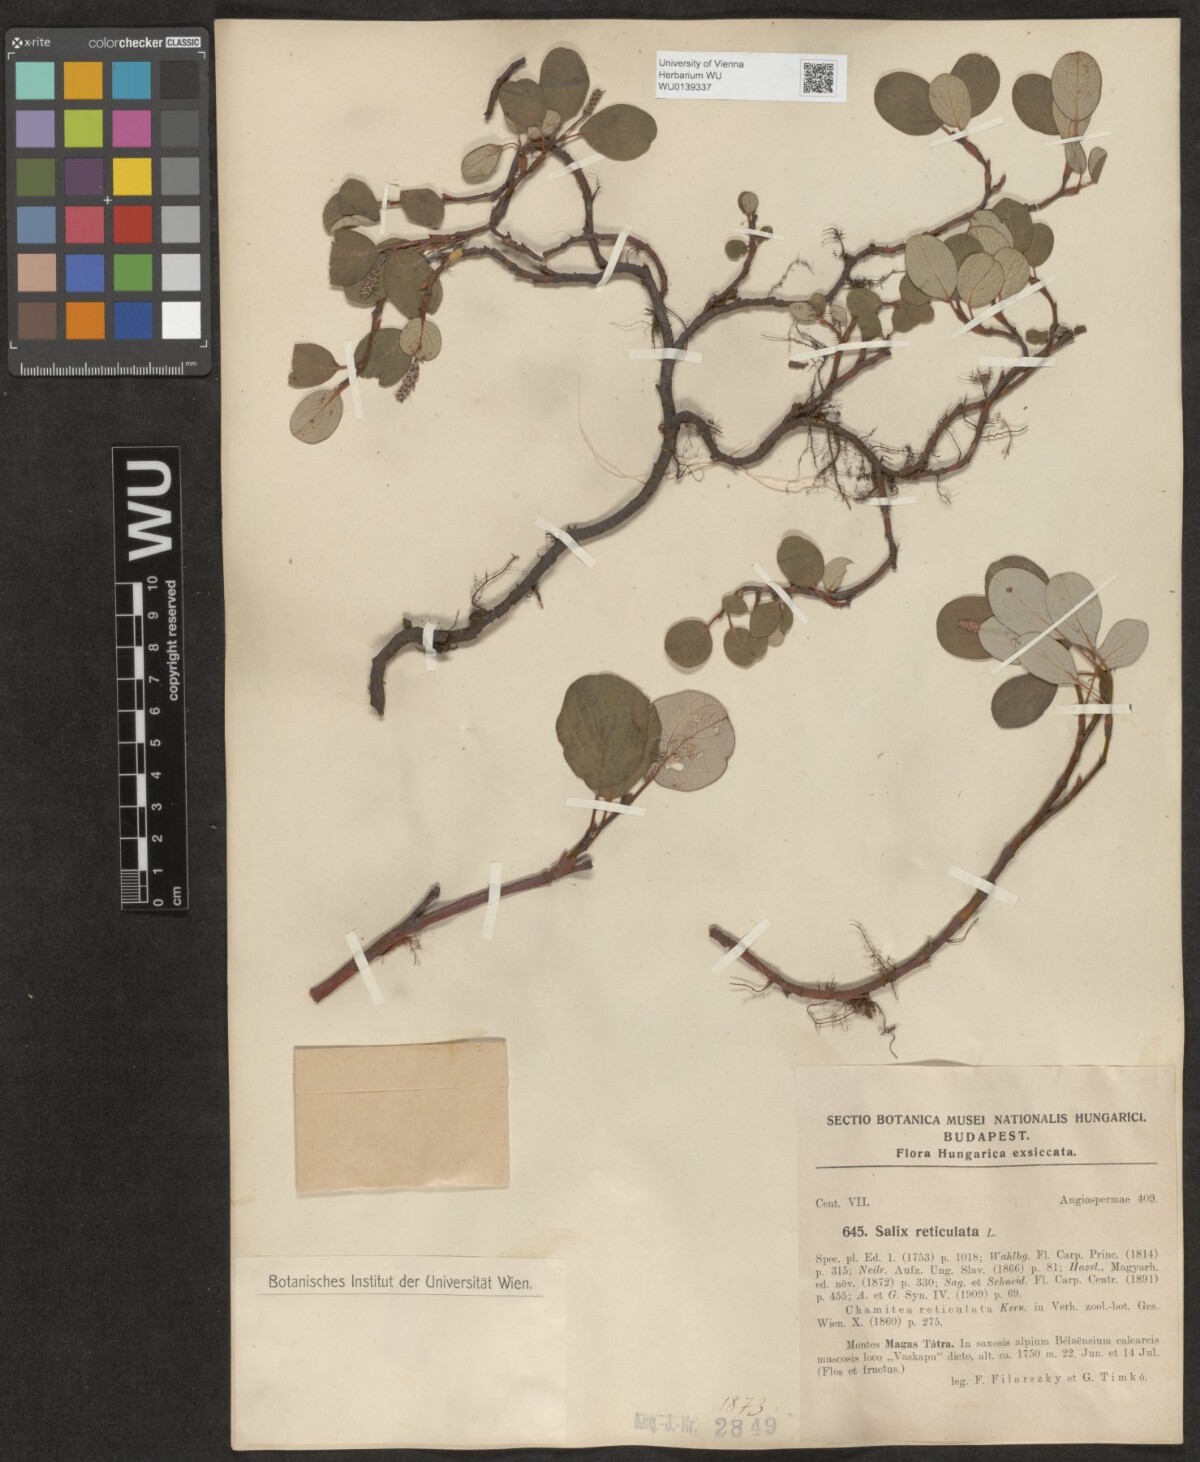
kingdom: Plantae
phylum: Tracheophyta
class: Magnoliopsida
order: Malpighiales
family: Salicaceae
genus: Salix
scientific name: Salix reticulata
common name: Net-leaved willow
